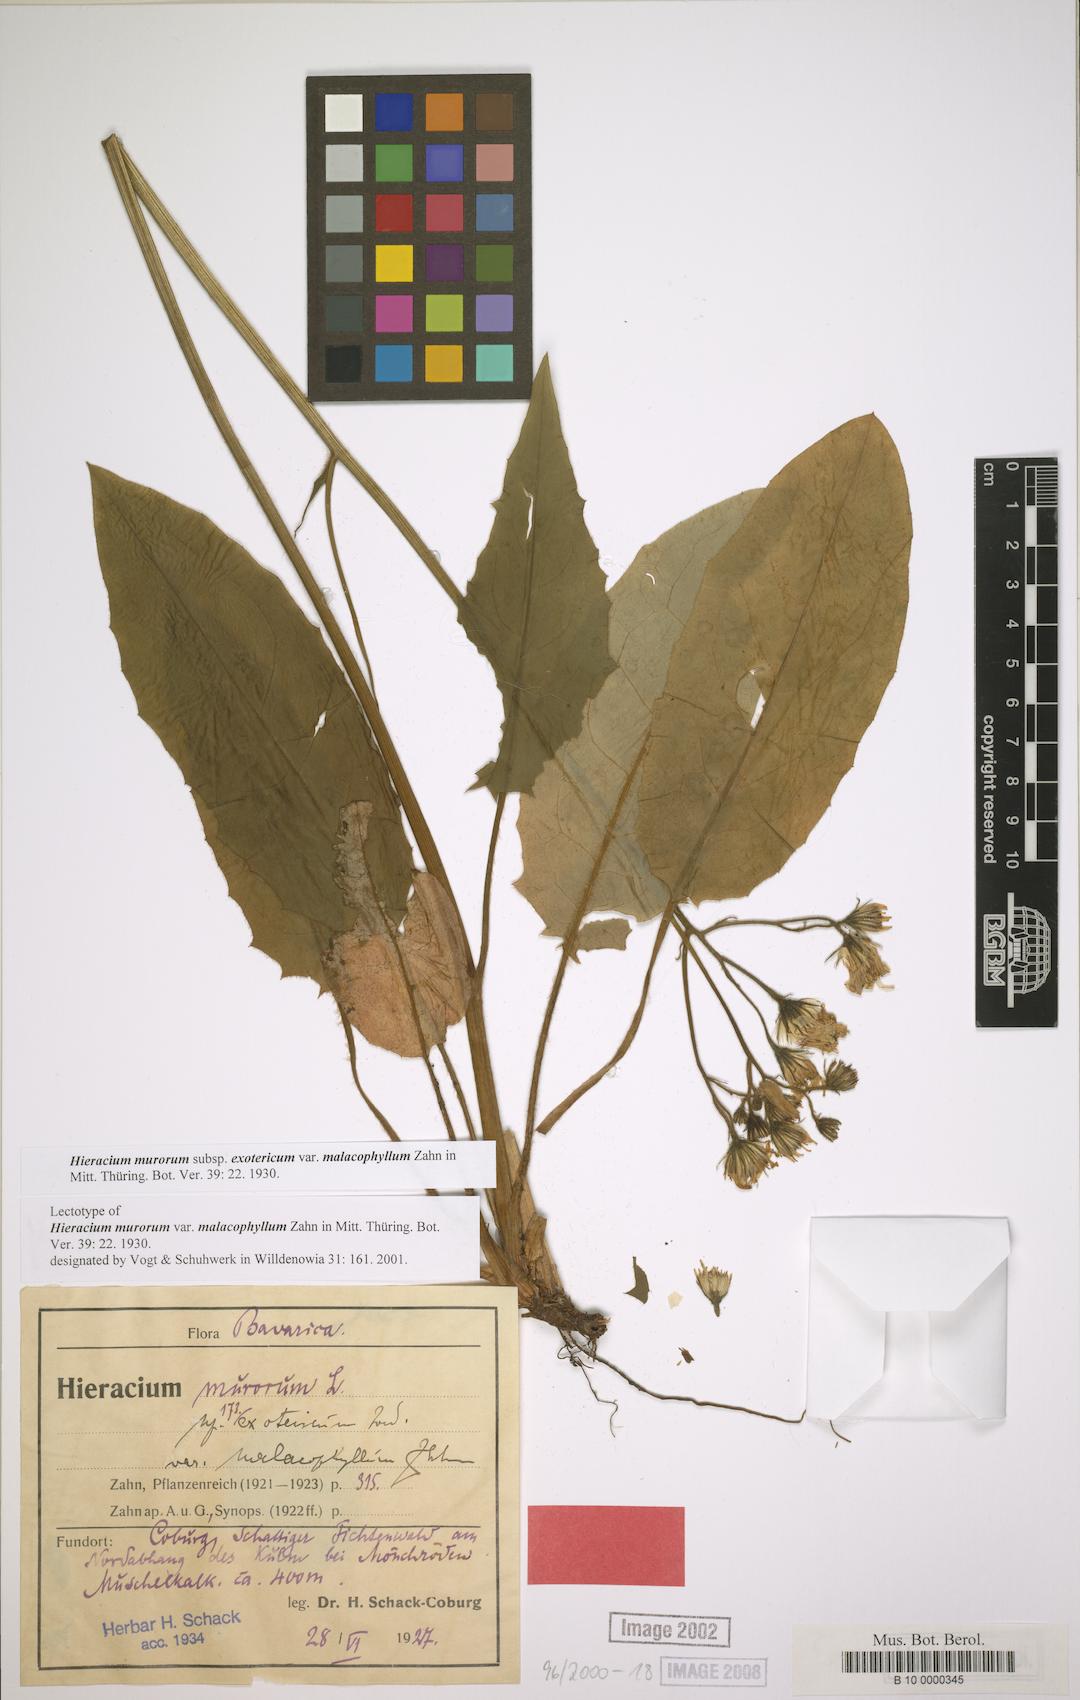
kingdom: Plantae
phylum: Tracheophyta
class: Magnoliopsida
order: Asterales
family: Asteraceae
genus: Hieracium
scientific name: Hieracium murorum
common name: Wall hawkweed
